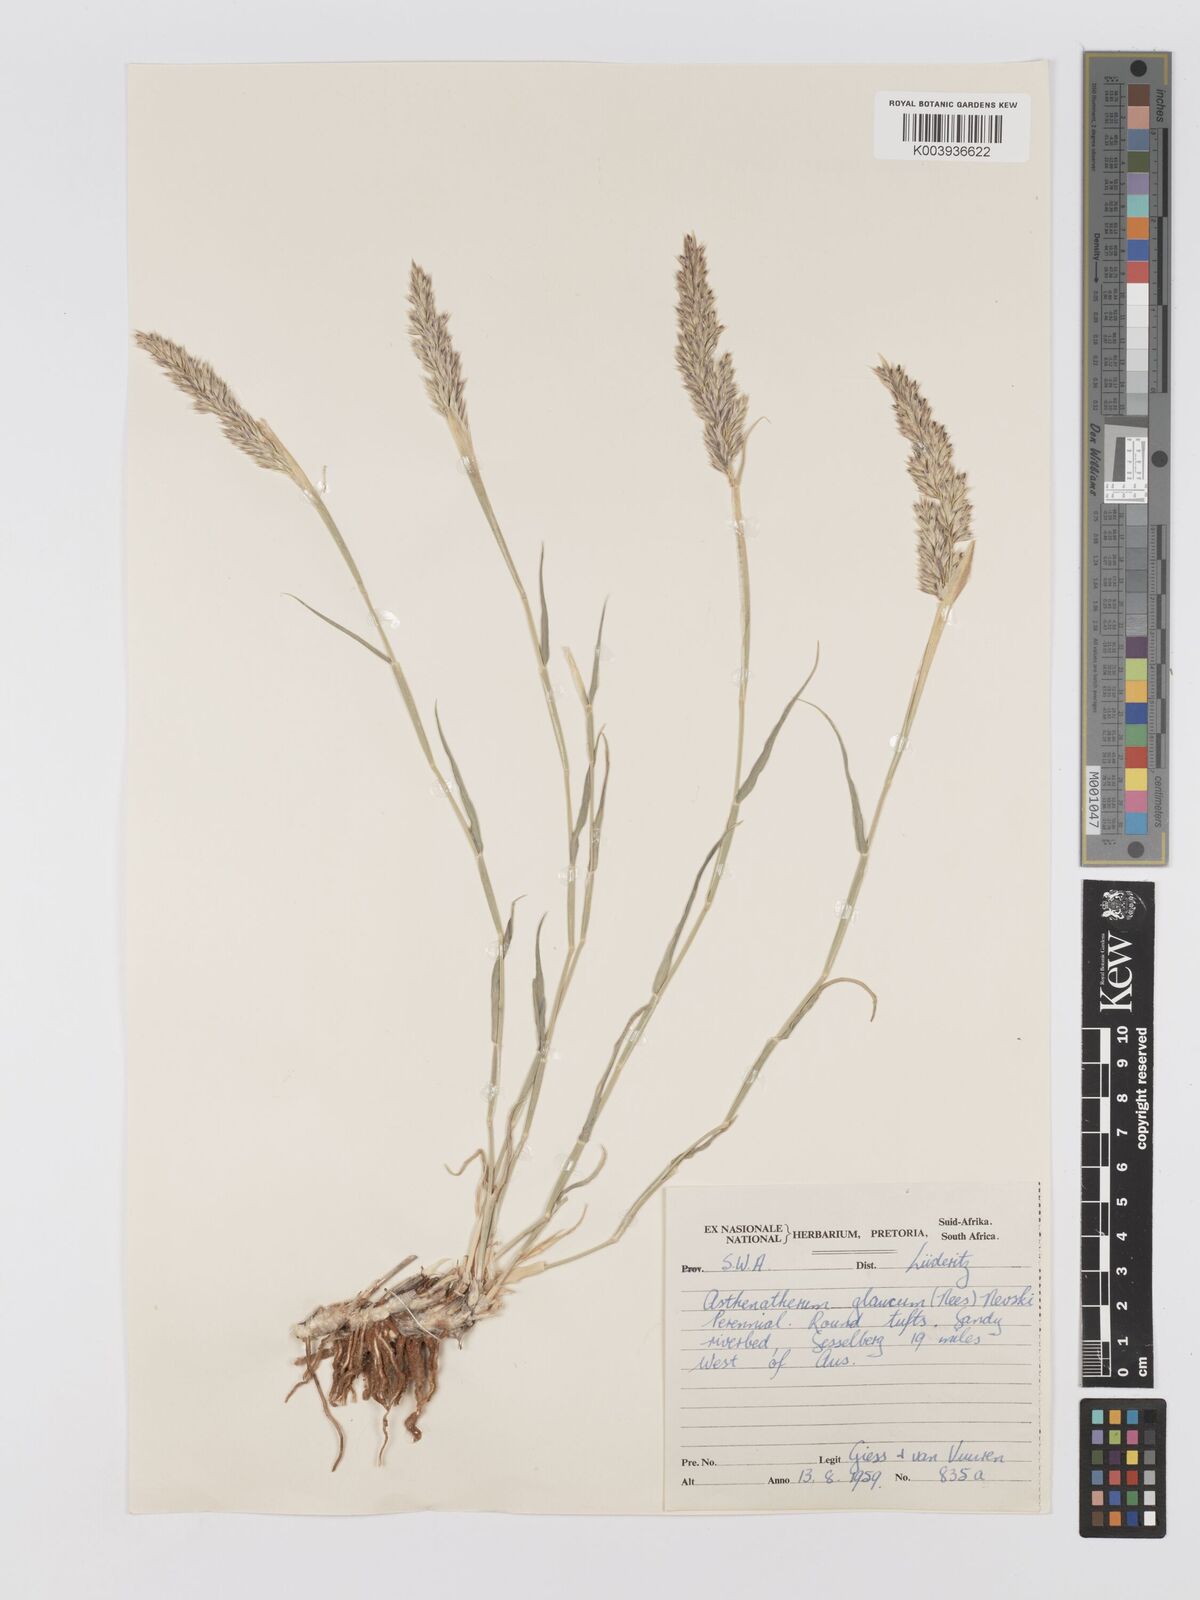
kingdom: Plantae
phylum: Tracheophyta
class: Liliopsida
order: Poales
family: Poaceae
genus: Centropodia
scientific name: Centropodia glauca
